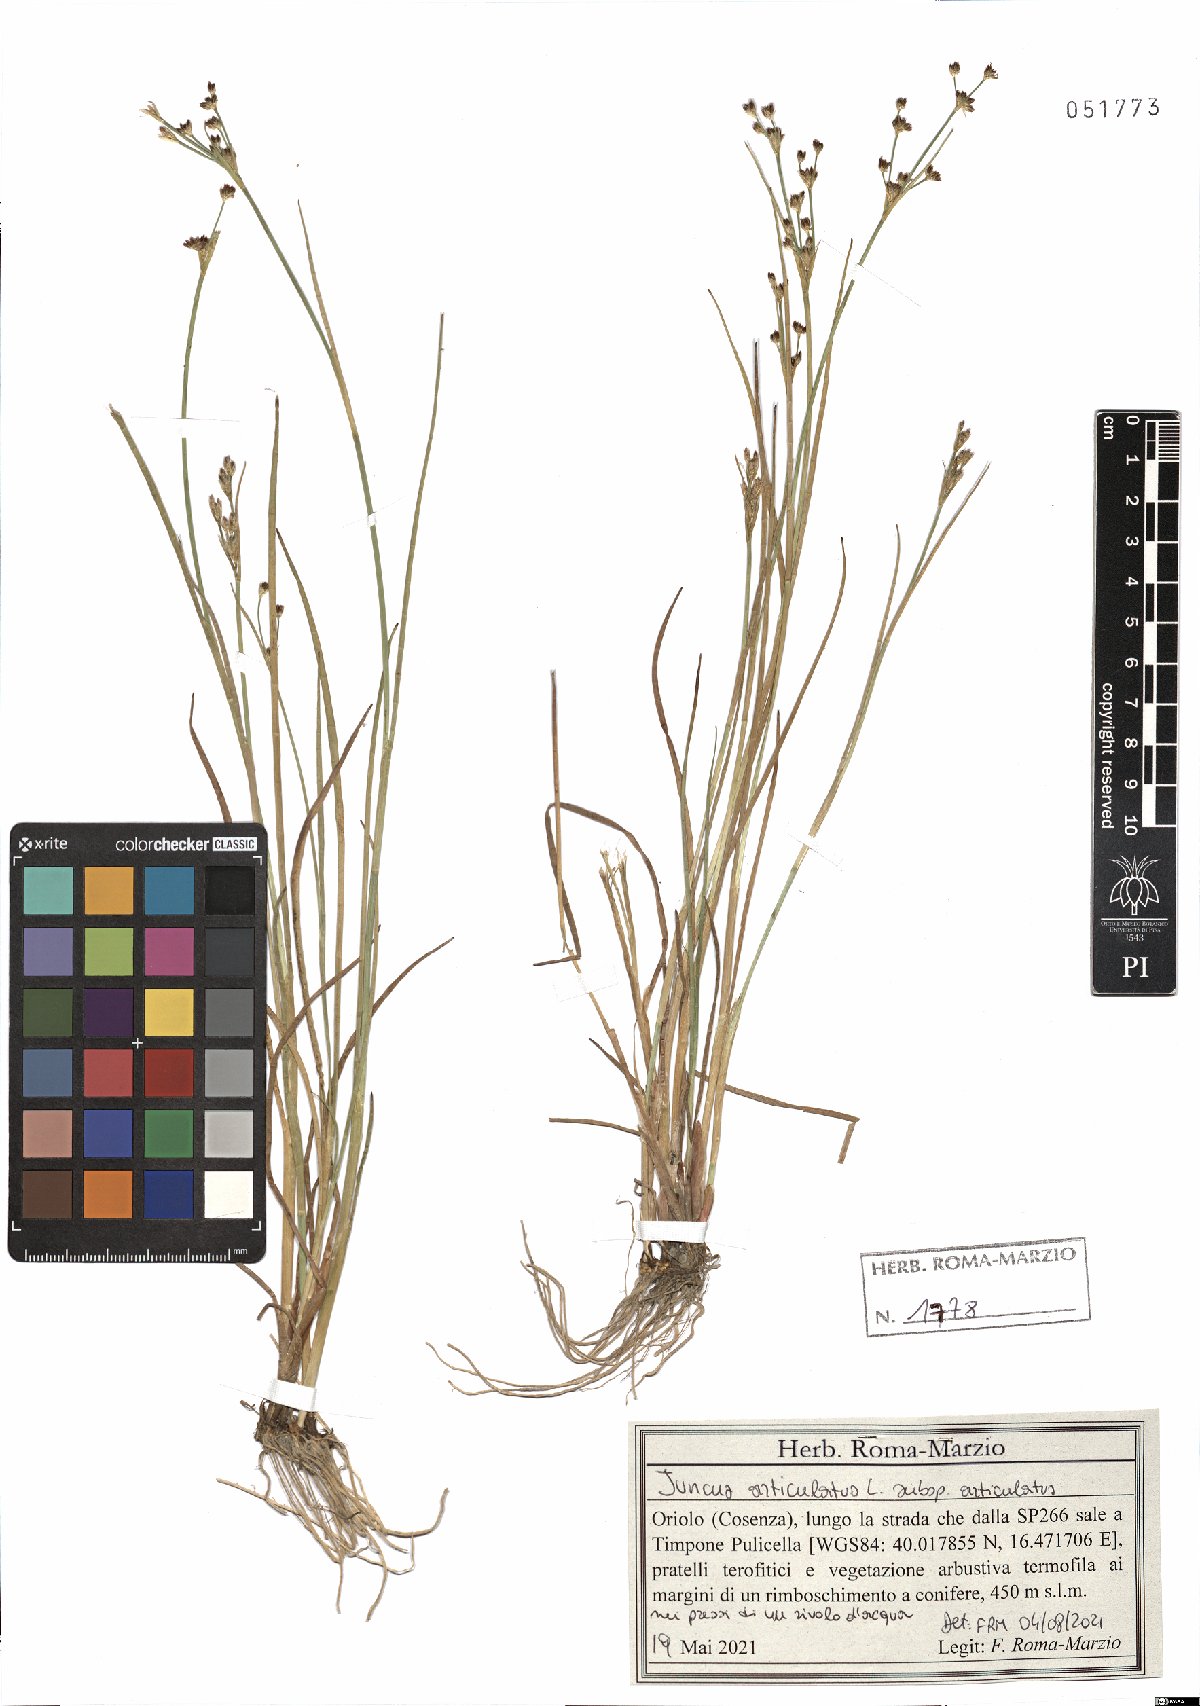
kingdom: Plantae
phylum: Tracheophyta
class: Liliopsida
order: Poales
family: Juncaceae
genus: Juncus
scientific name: Juncus articulatus
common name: Jointed rush
